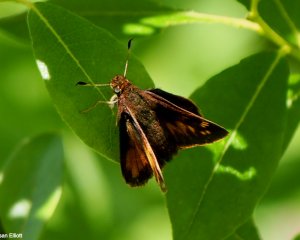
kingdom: Animalia
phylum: Arthropoda
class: Insecta
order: Lepidoptera
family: Hesperiidae
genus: Polites
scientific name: Polites coras
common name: Peck's Skipper
